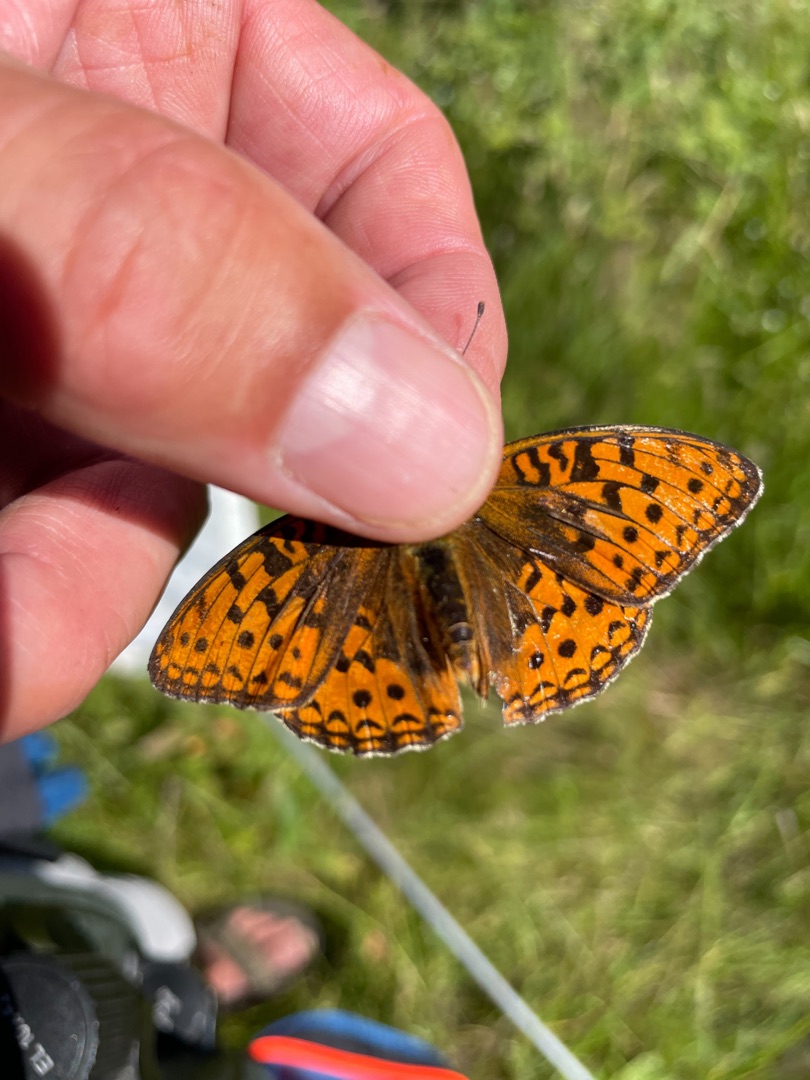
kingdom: Animalia
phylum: Arthropoda
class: Insecta
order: Lepidoptera
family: Nymphalidae
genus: Fabriciana
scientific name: Fabriciana adippe
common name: Skovperlemorsommerfugl
